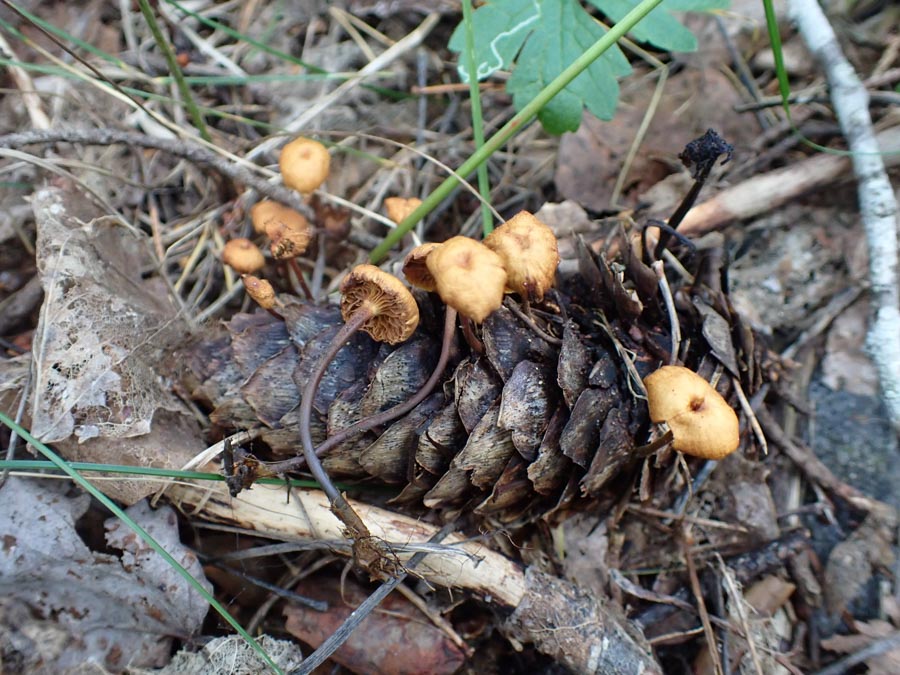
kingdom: Fungi
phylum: Basidiomycota
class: Agaricomycetes
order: Agaricales
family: Mycenaceae
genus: Xeromphalina
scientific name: Xeromphalina
